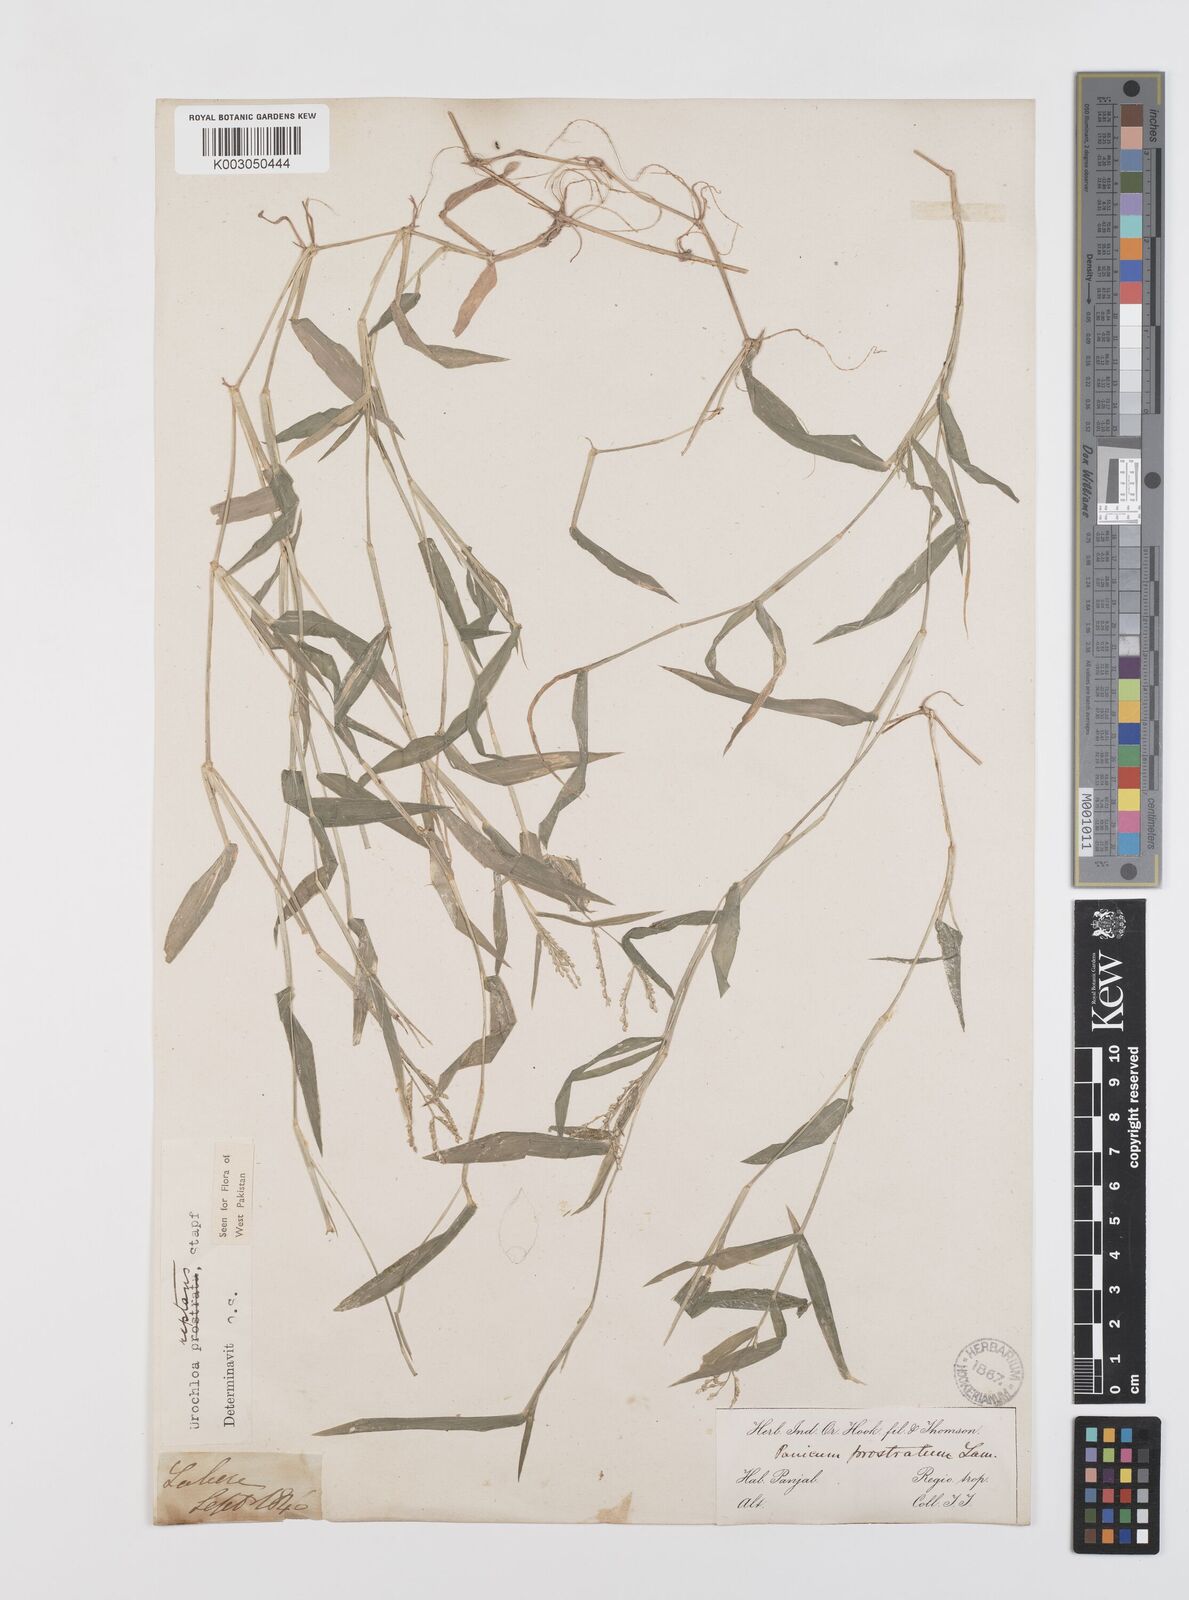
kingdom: Plantae
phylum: Tracheophyta
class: Liliopsida
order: Poales
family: Poaceae
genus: Urochloa
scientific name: Urochloa reptans
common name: Sprawling signalgrass
